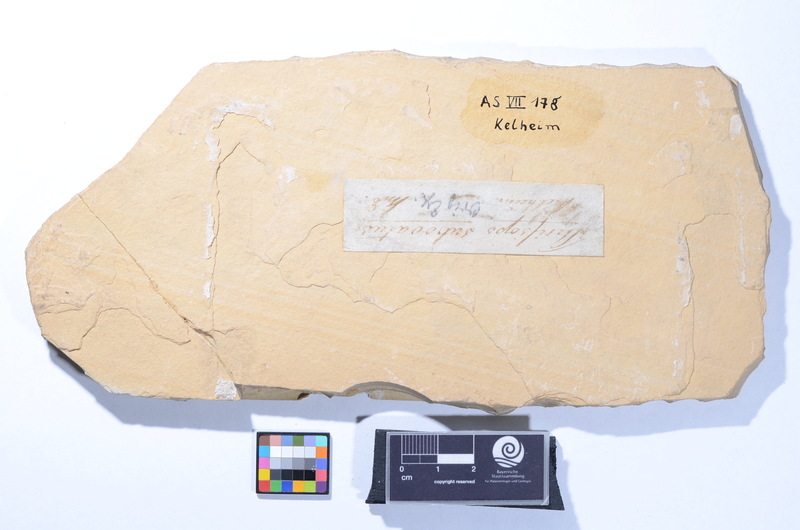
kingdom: Animalia
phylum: Chordata
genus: Thrissops
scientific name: Thrissops formosus
